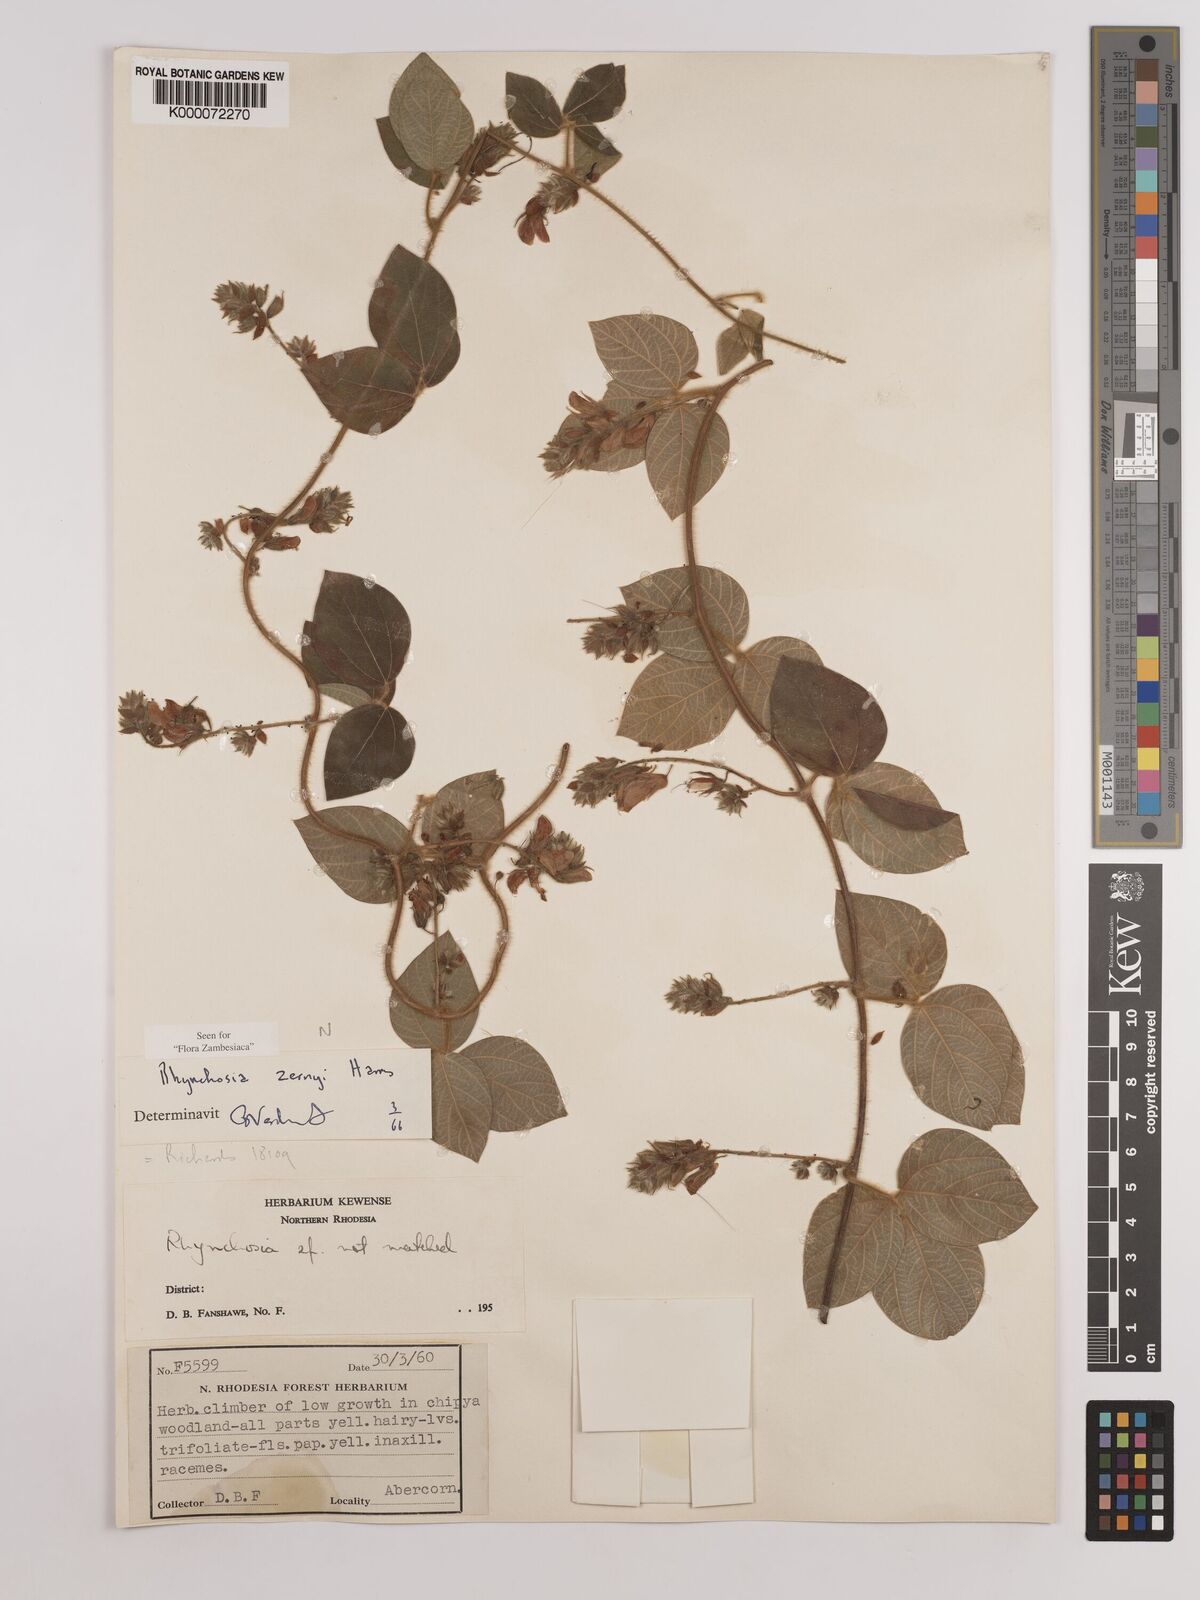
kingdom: Plantae
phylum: Tracheophyta
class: Magnoliopsida
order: Fabales
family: Fabaceae
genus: Rhynchosia
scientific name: Rhynchosia zernyi
